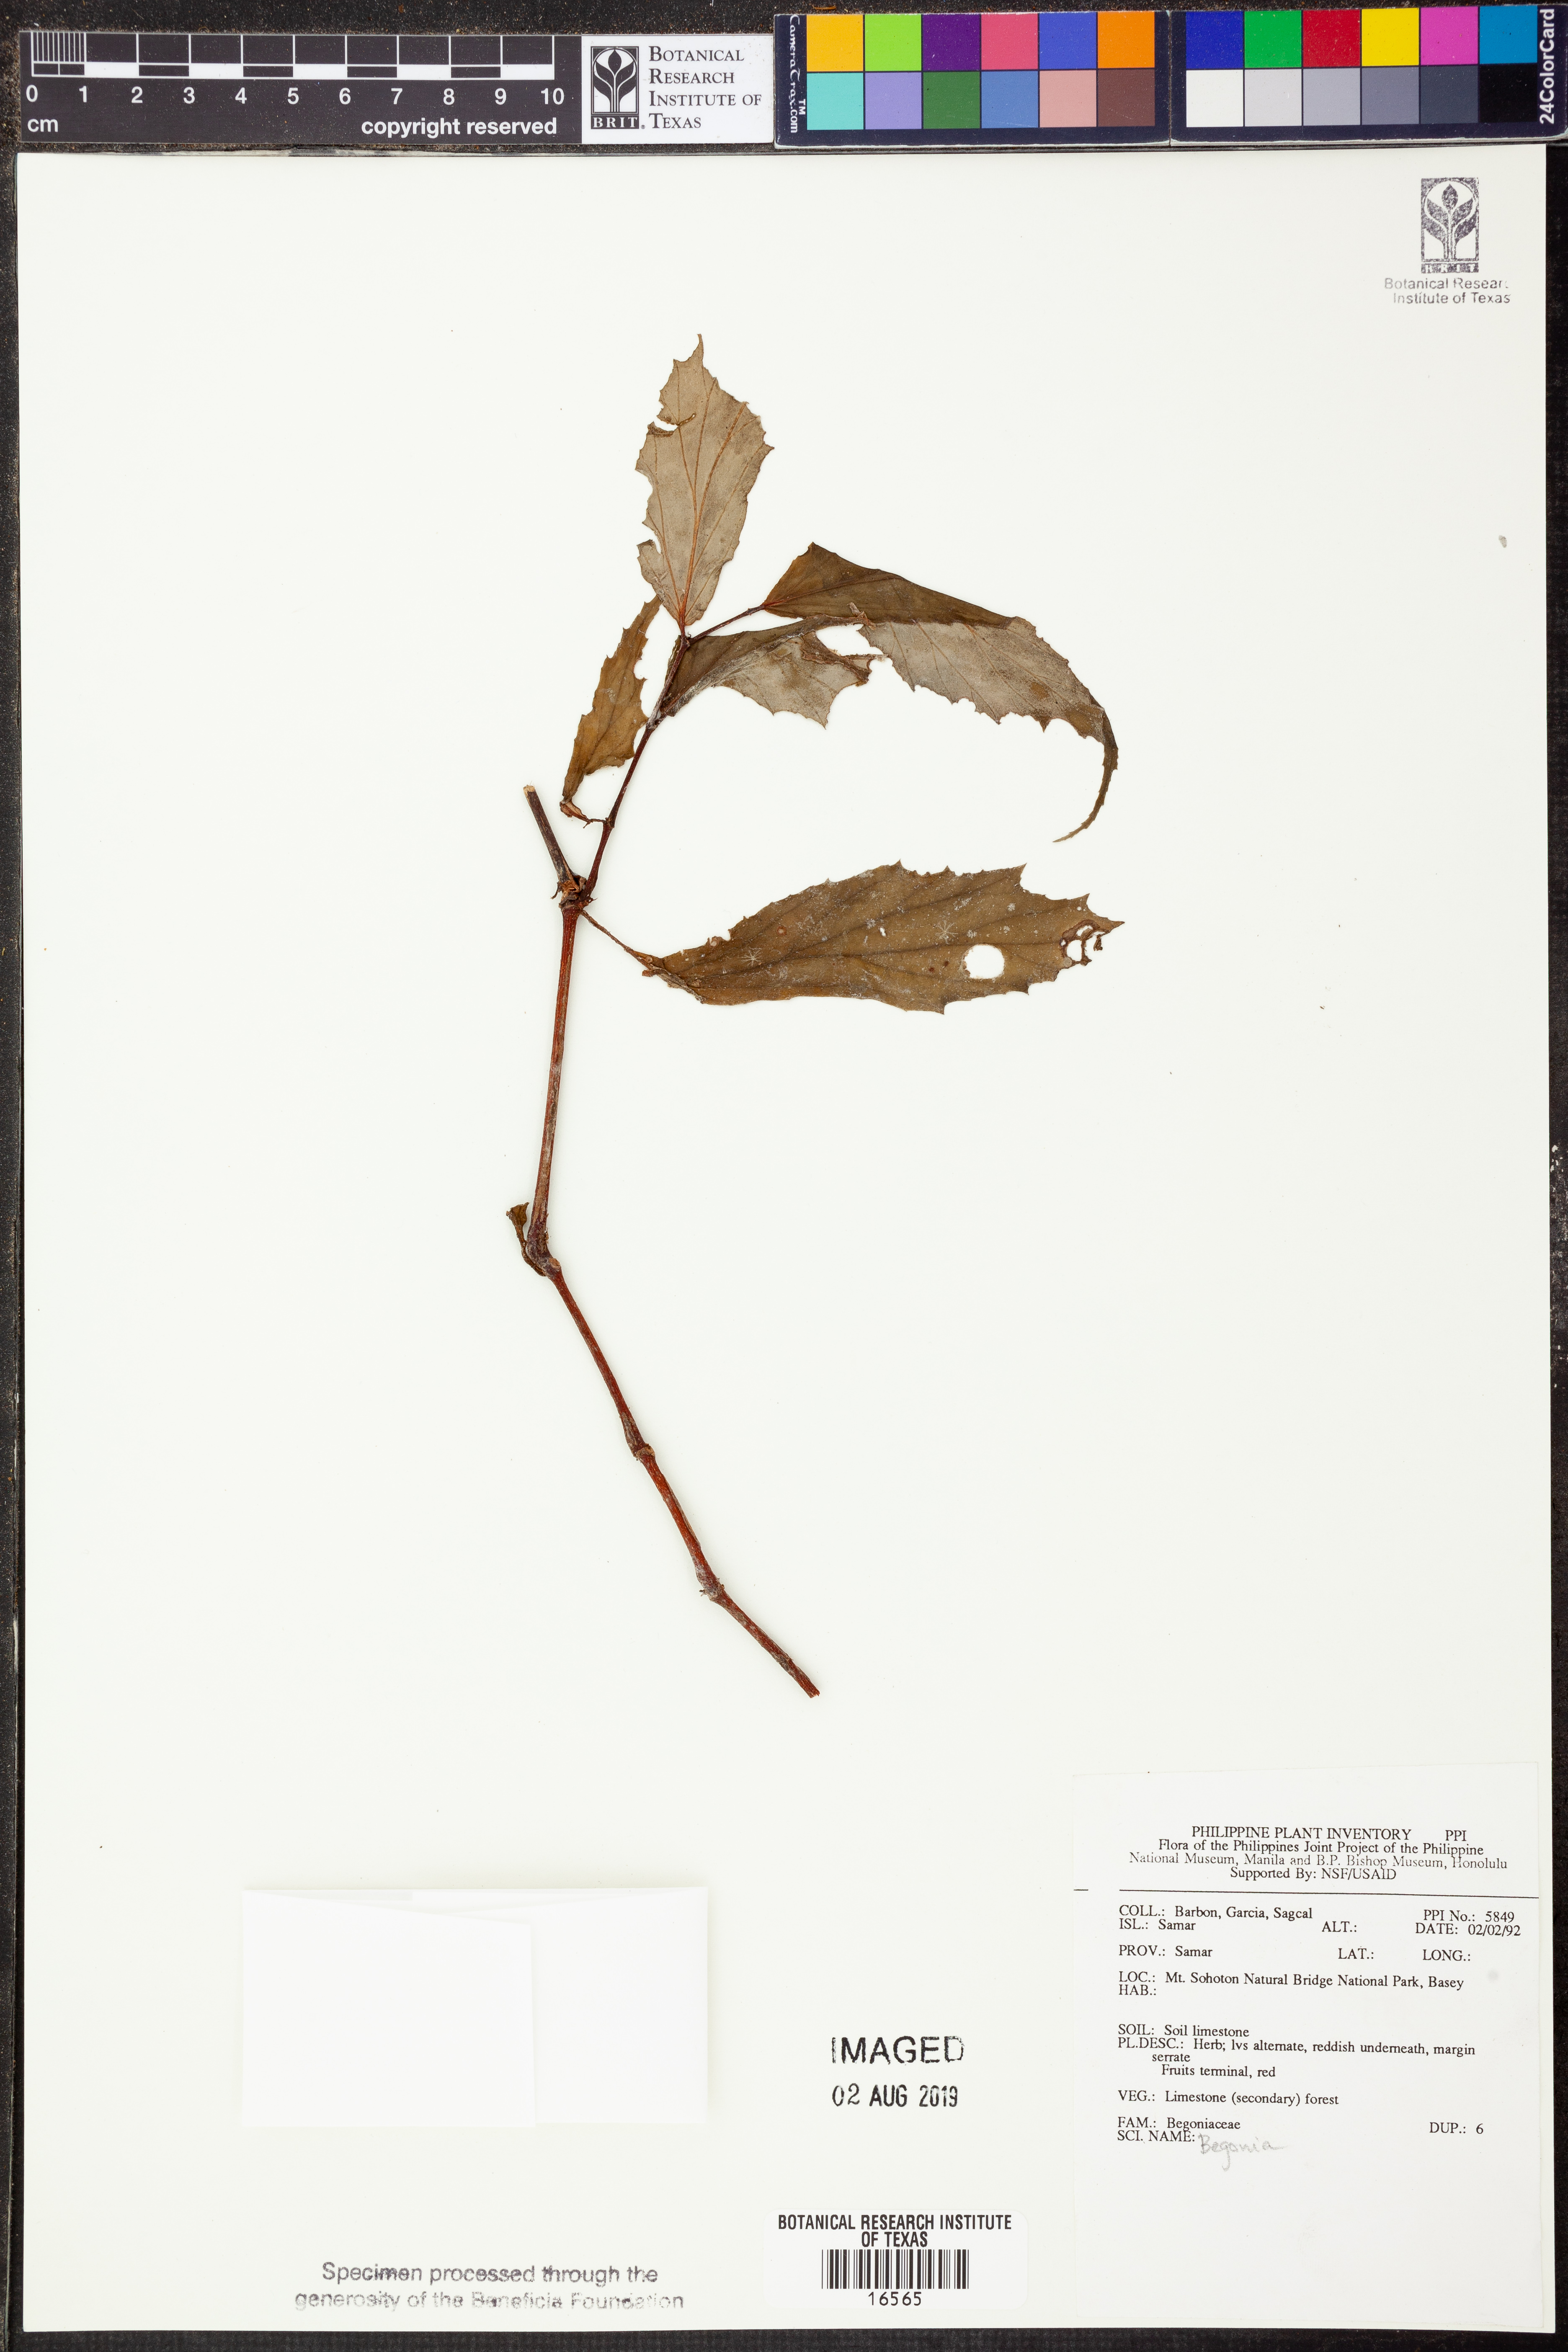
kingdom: Plantae
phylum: Tracheophyta
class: Magnoliopsida
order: Cucurbitales
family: Begoniaceae
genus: Begonia
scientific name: Begonia
